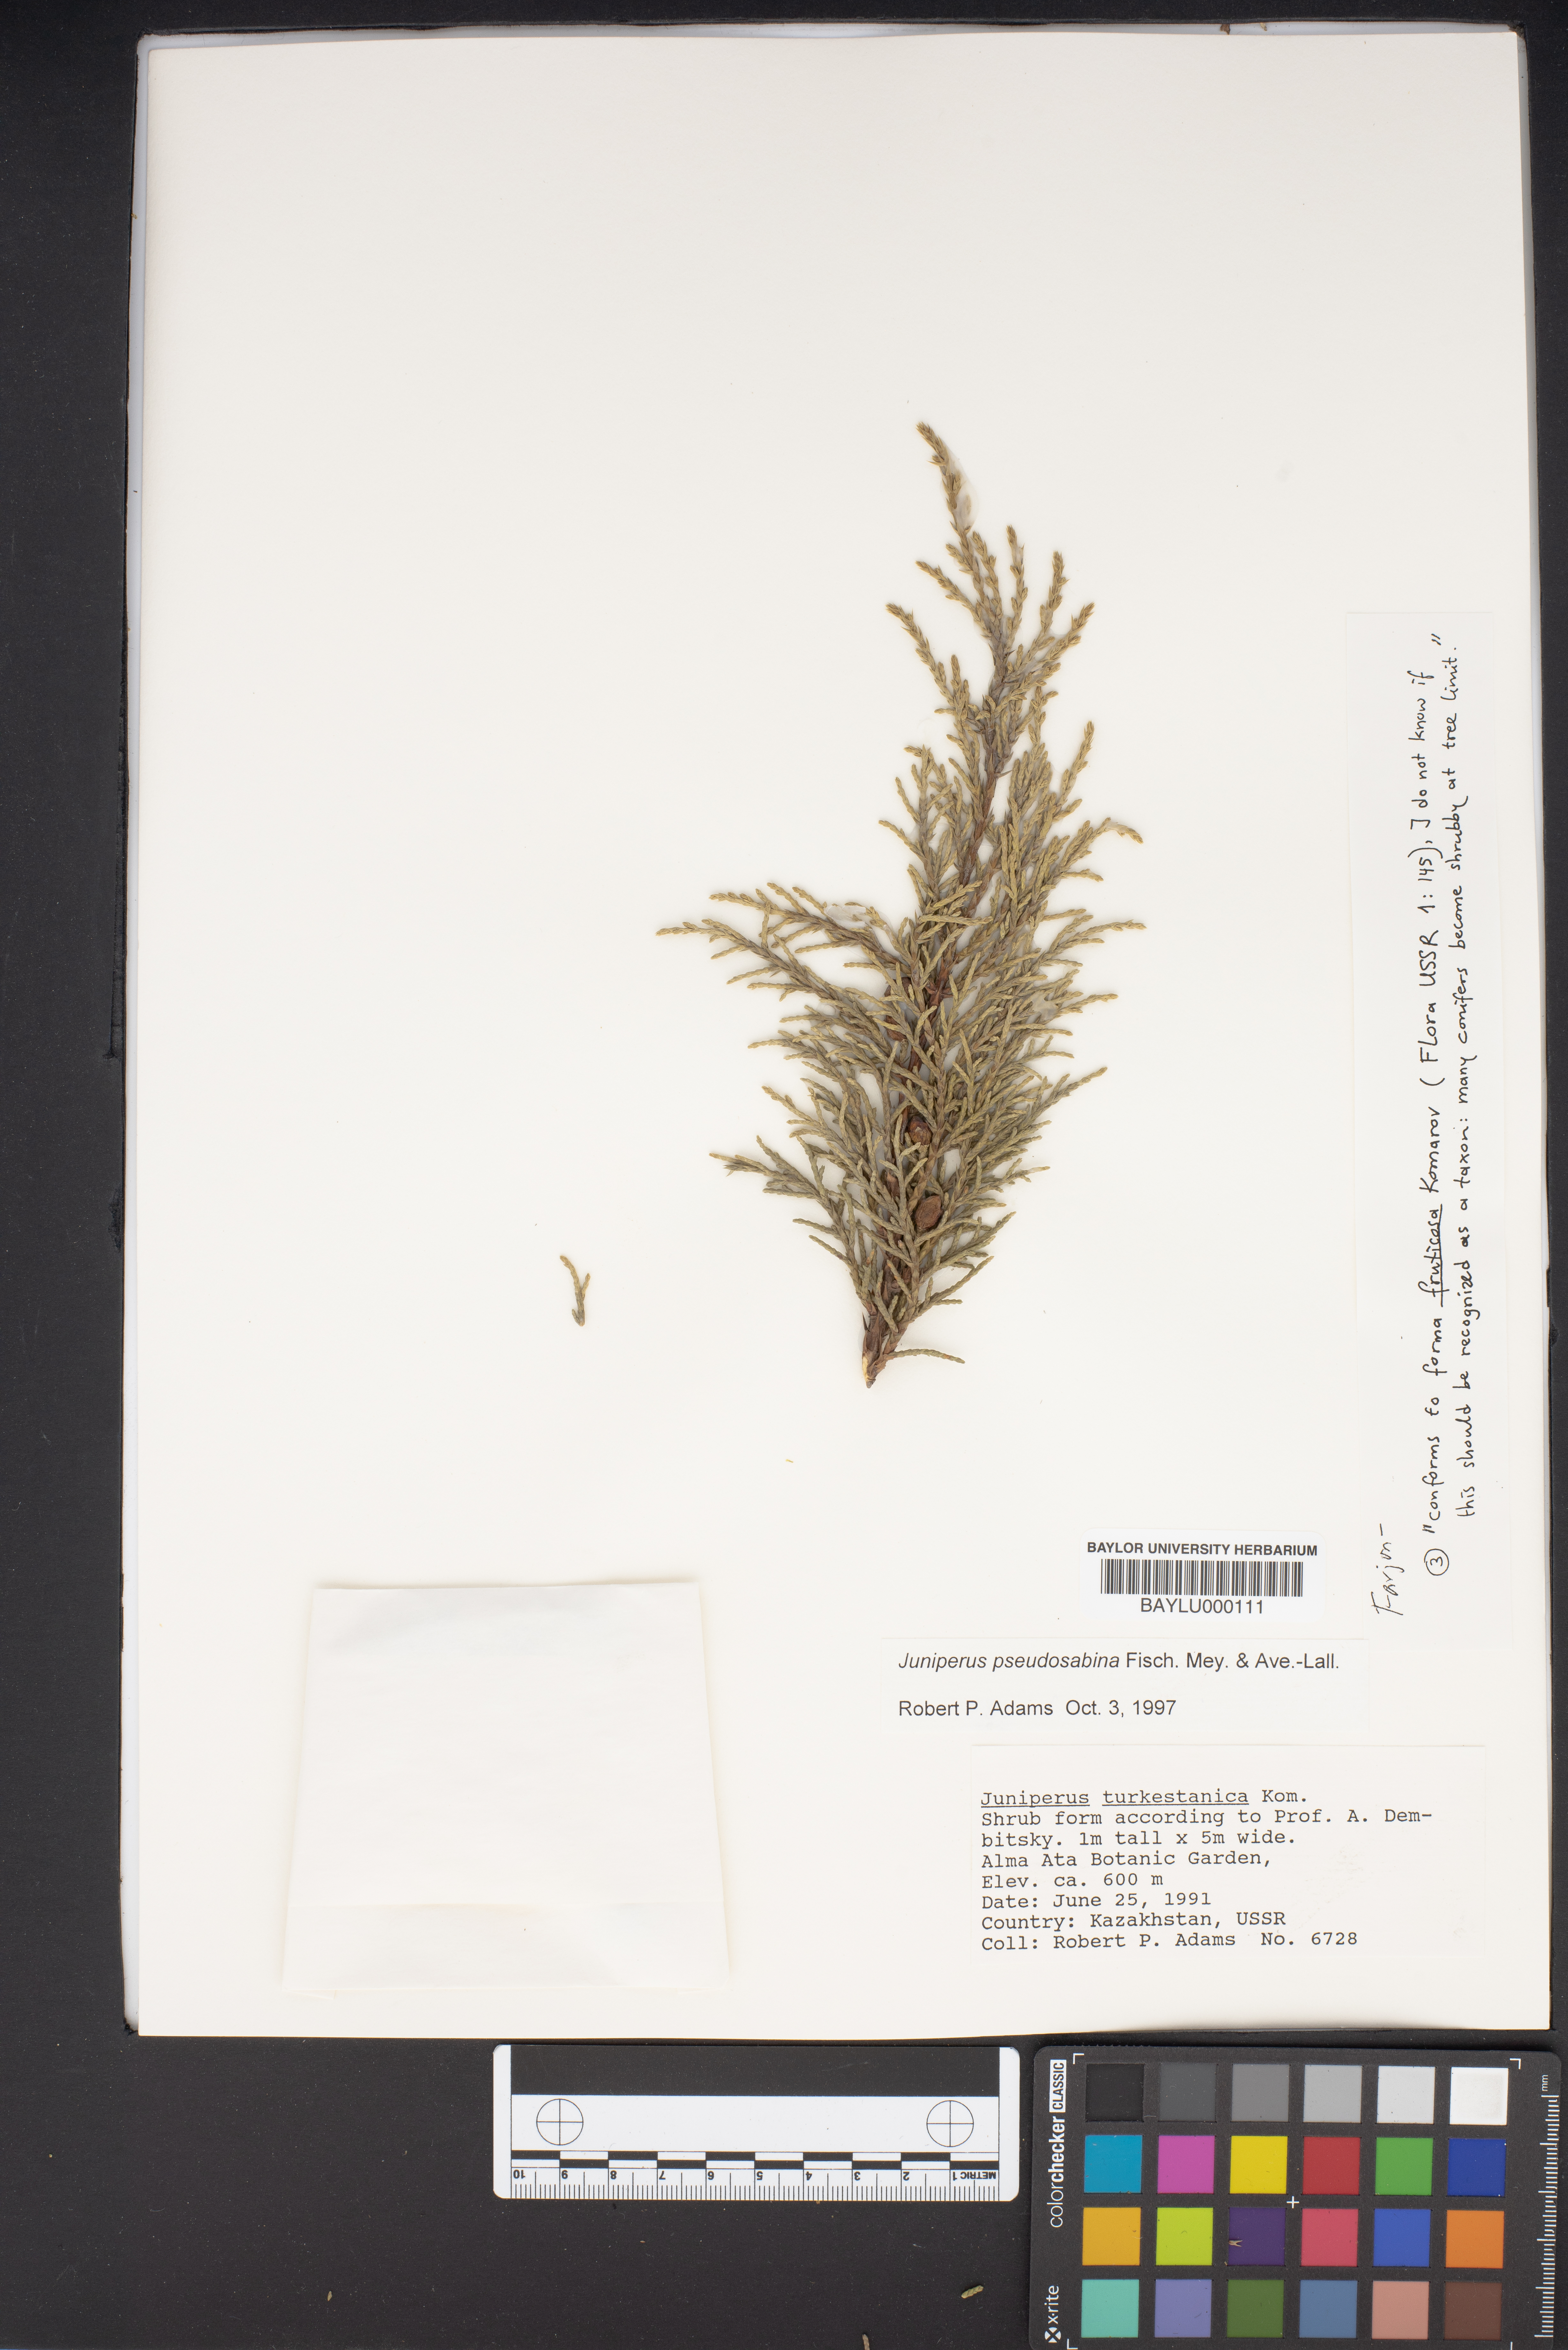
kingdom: Plantae
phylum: Tracheophyta
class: Pinopsida
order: Pinales
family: Cupressaceae
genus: Juniperus
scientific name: Juniperus pseudosabina
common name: Turkestan juniper
